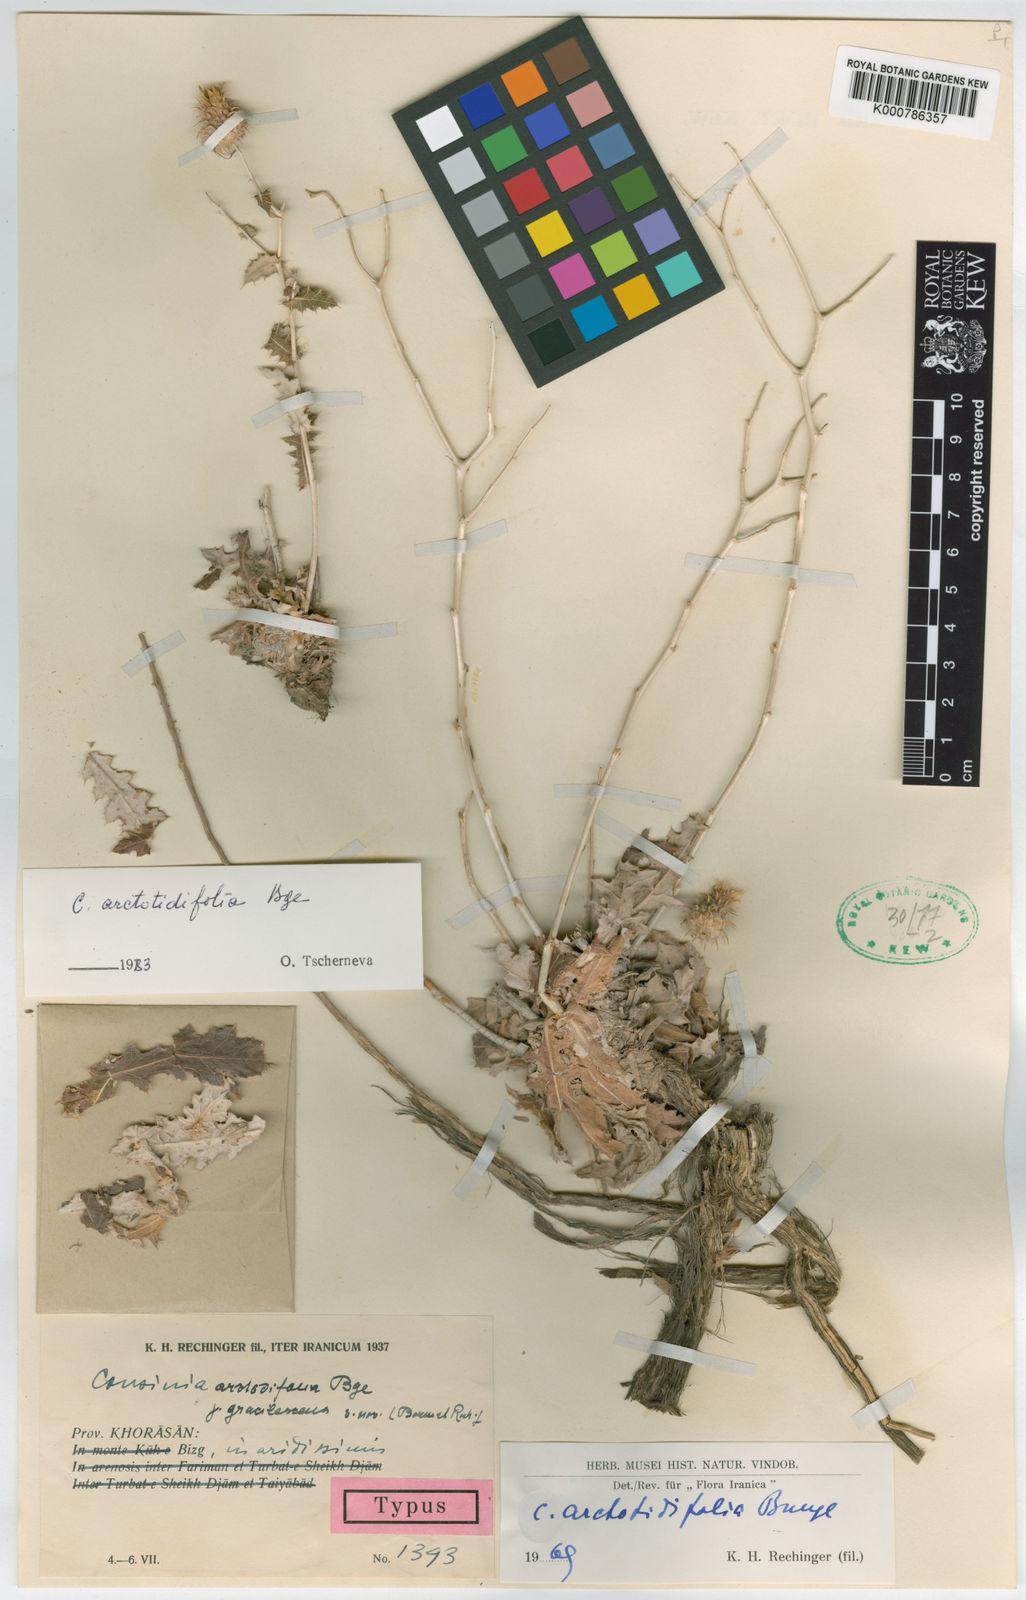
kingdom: Plantae
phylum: Tracheophyta
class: Magnoliopsida
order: Asterales
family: Asteraceae
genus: Cousinia
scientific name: Cousinia arctotidifolia
